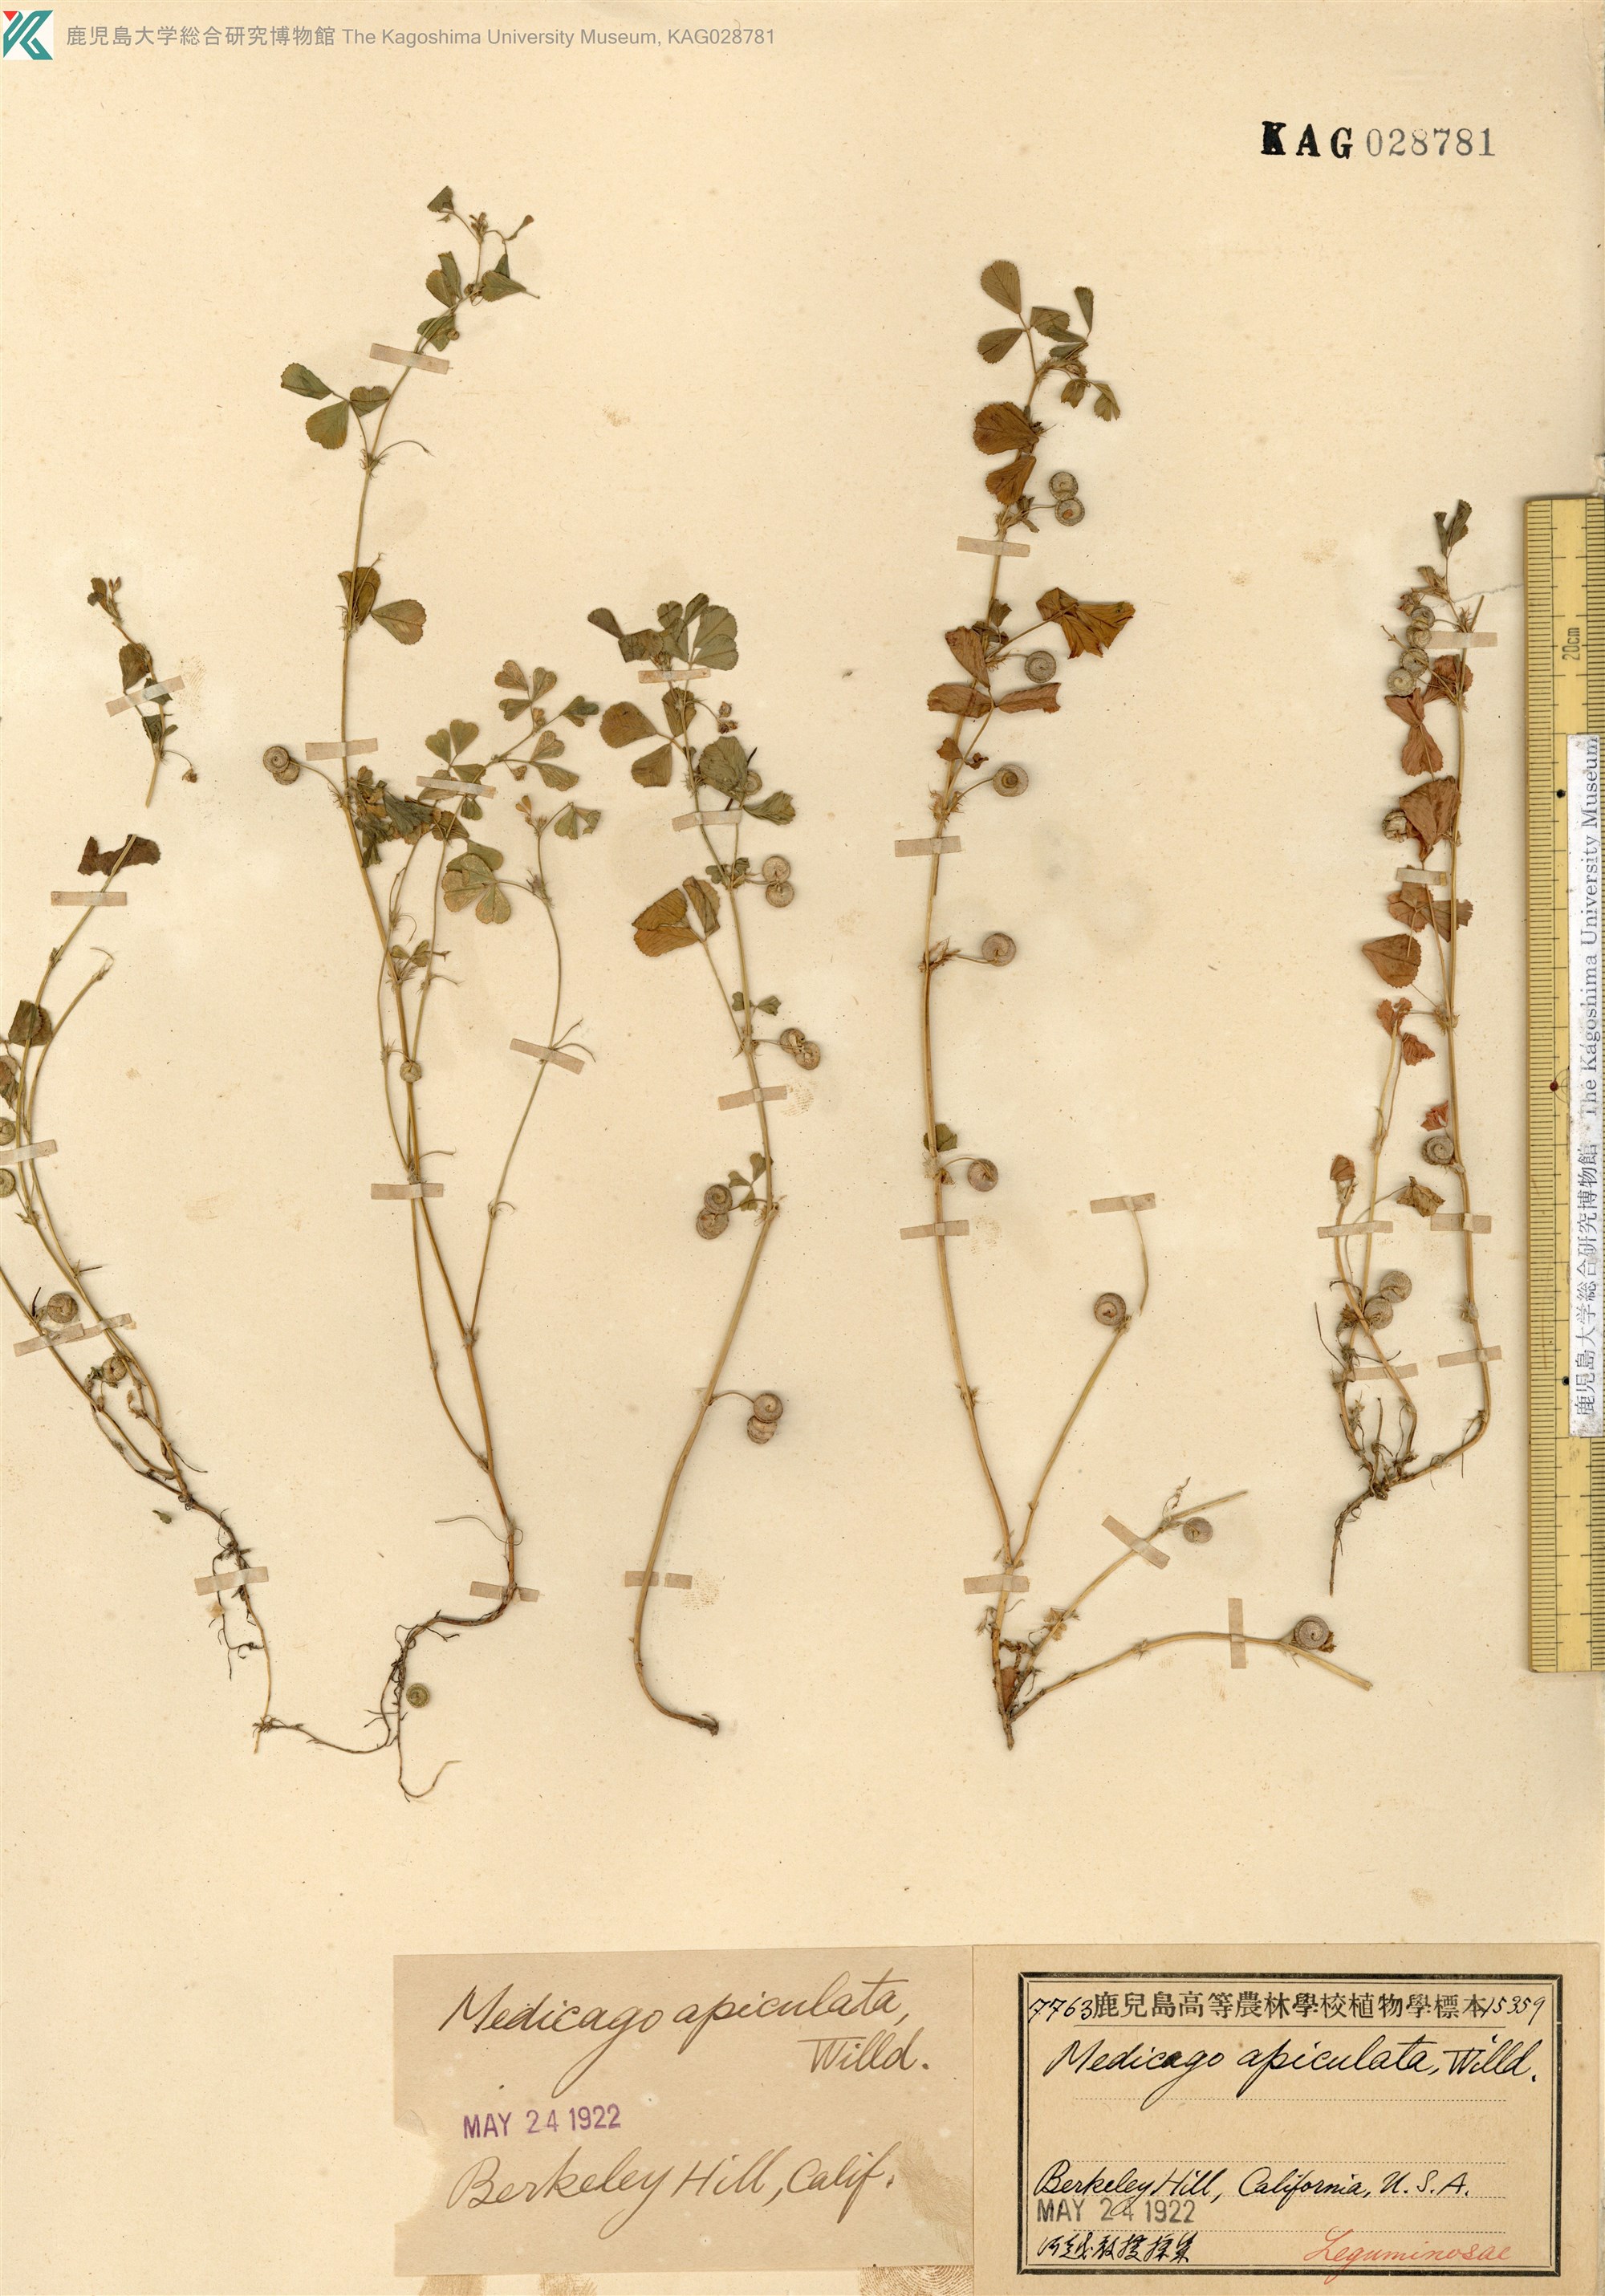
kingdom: Plantae
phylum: Tracheophyta
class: Magnoliopsida
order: Fabales
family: Fabaceae
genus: Medicago
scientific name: Medicago
